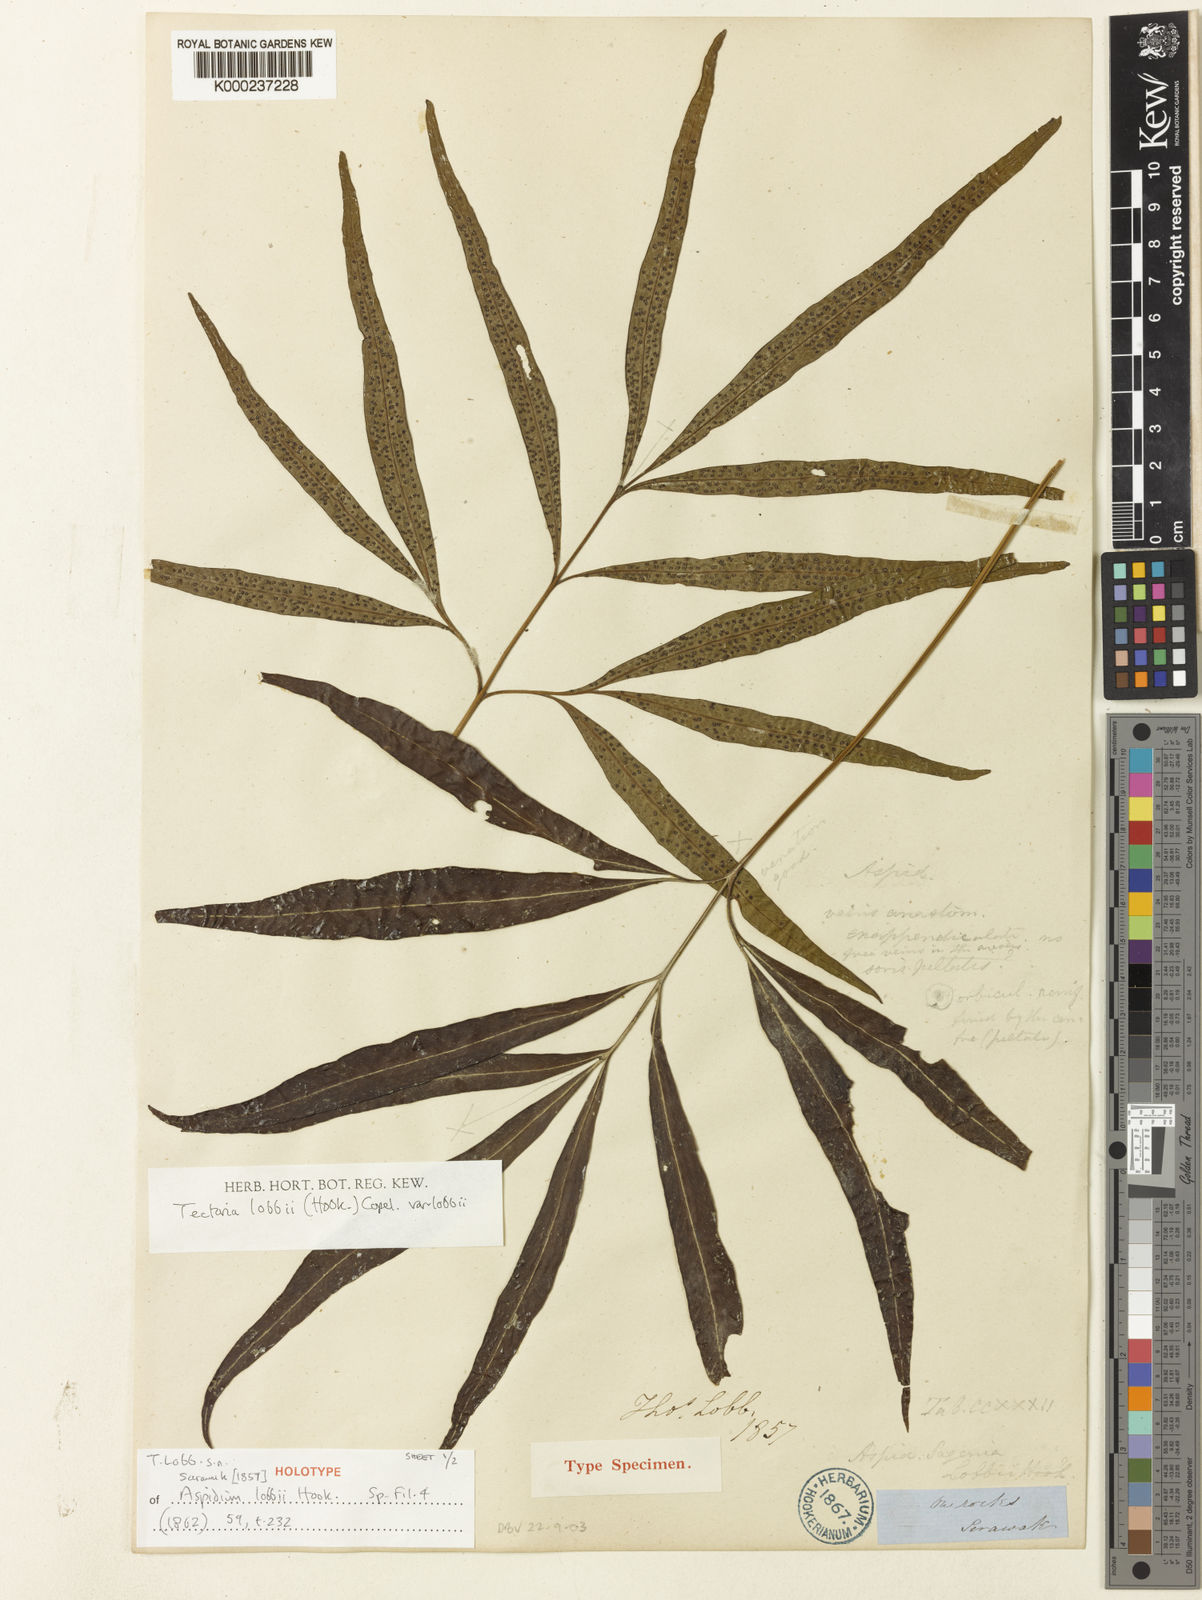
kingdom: Plantae
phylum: Tracheophyta
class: Polypodiopsida
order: Polypodiales
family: Tectariaceae
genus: Tectaria
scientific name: Tectaria lobbii
